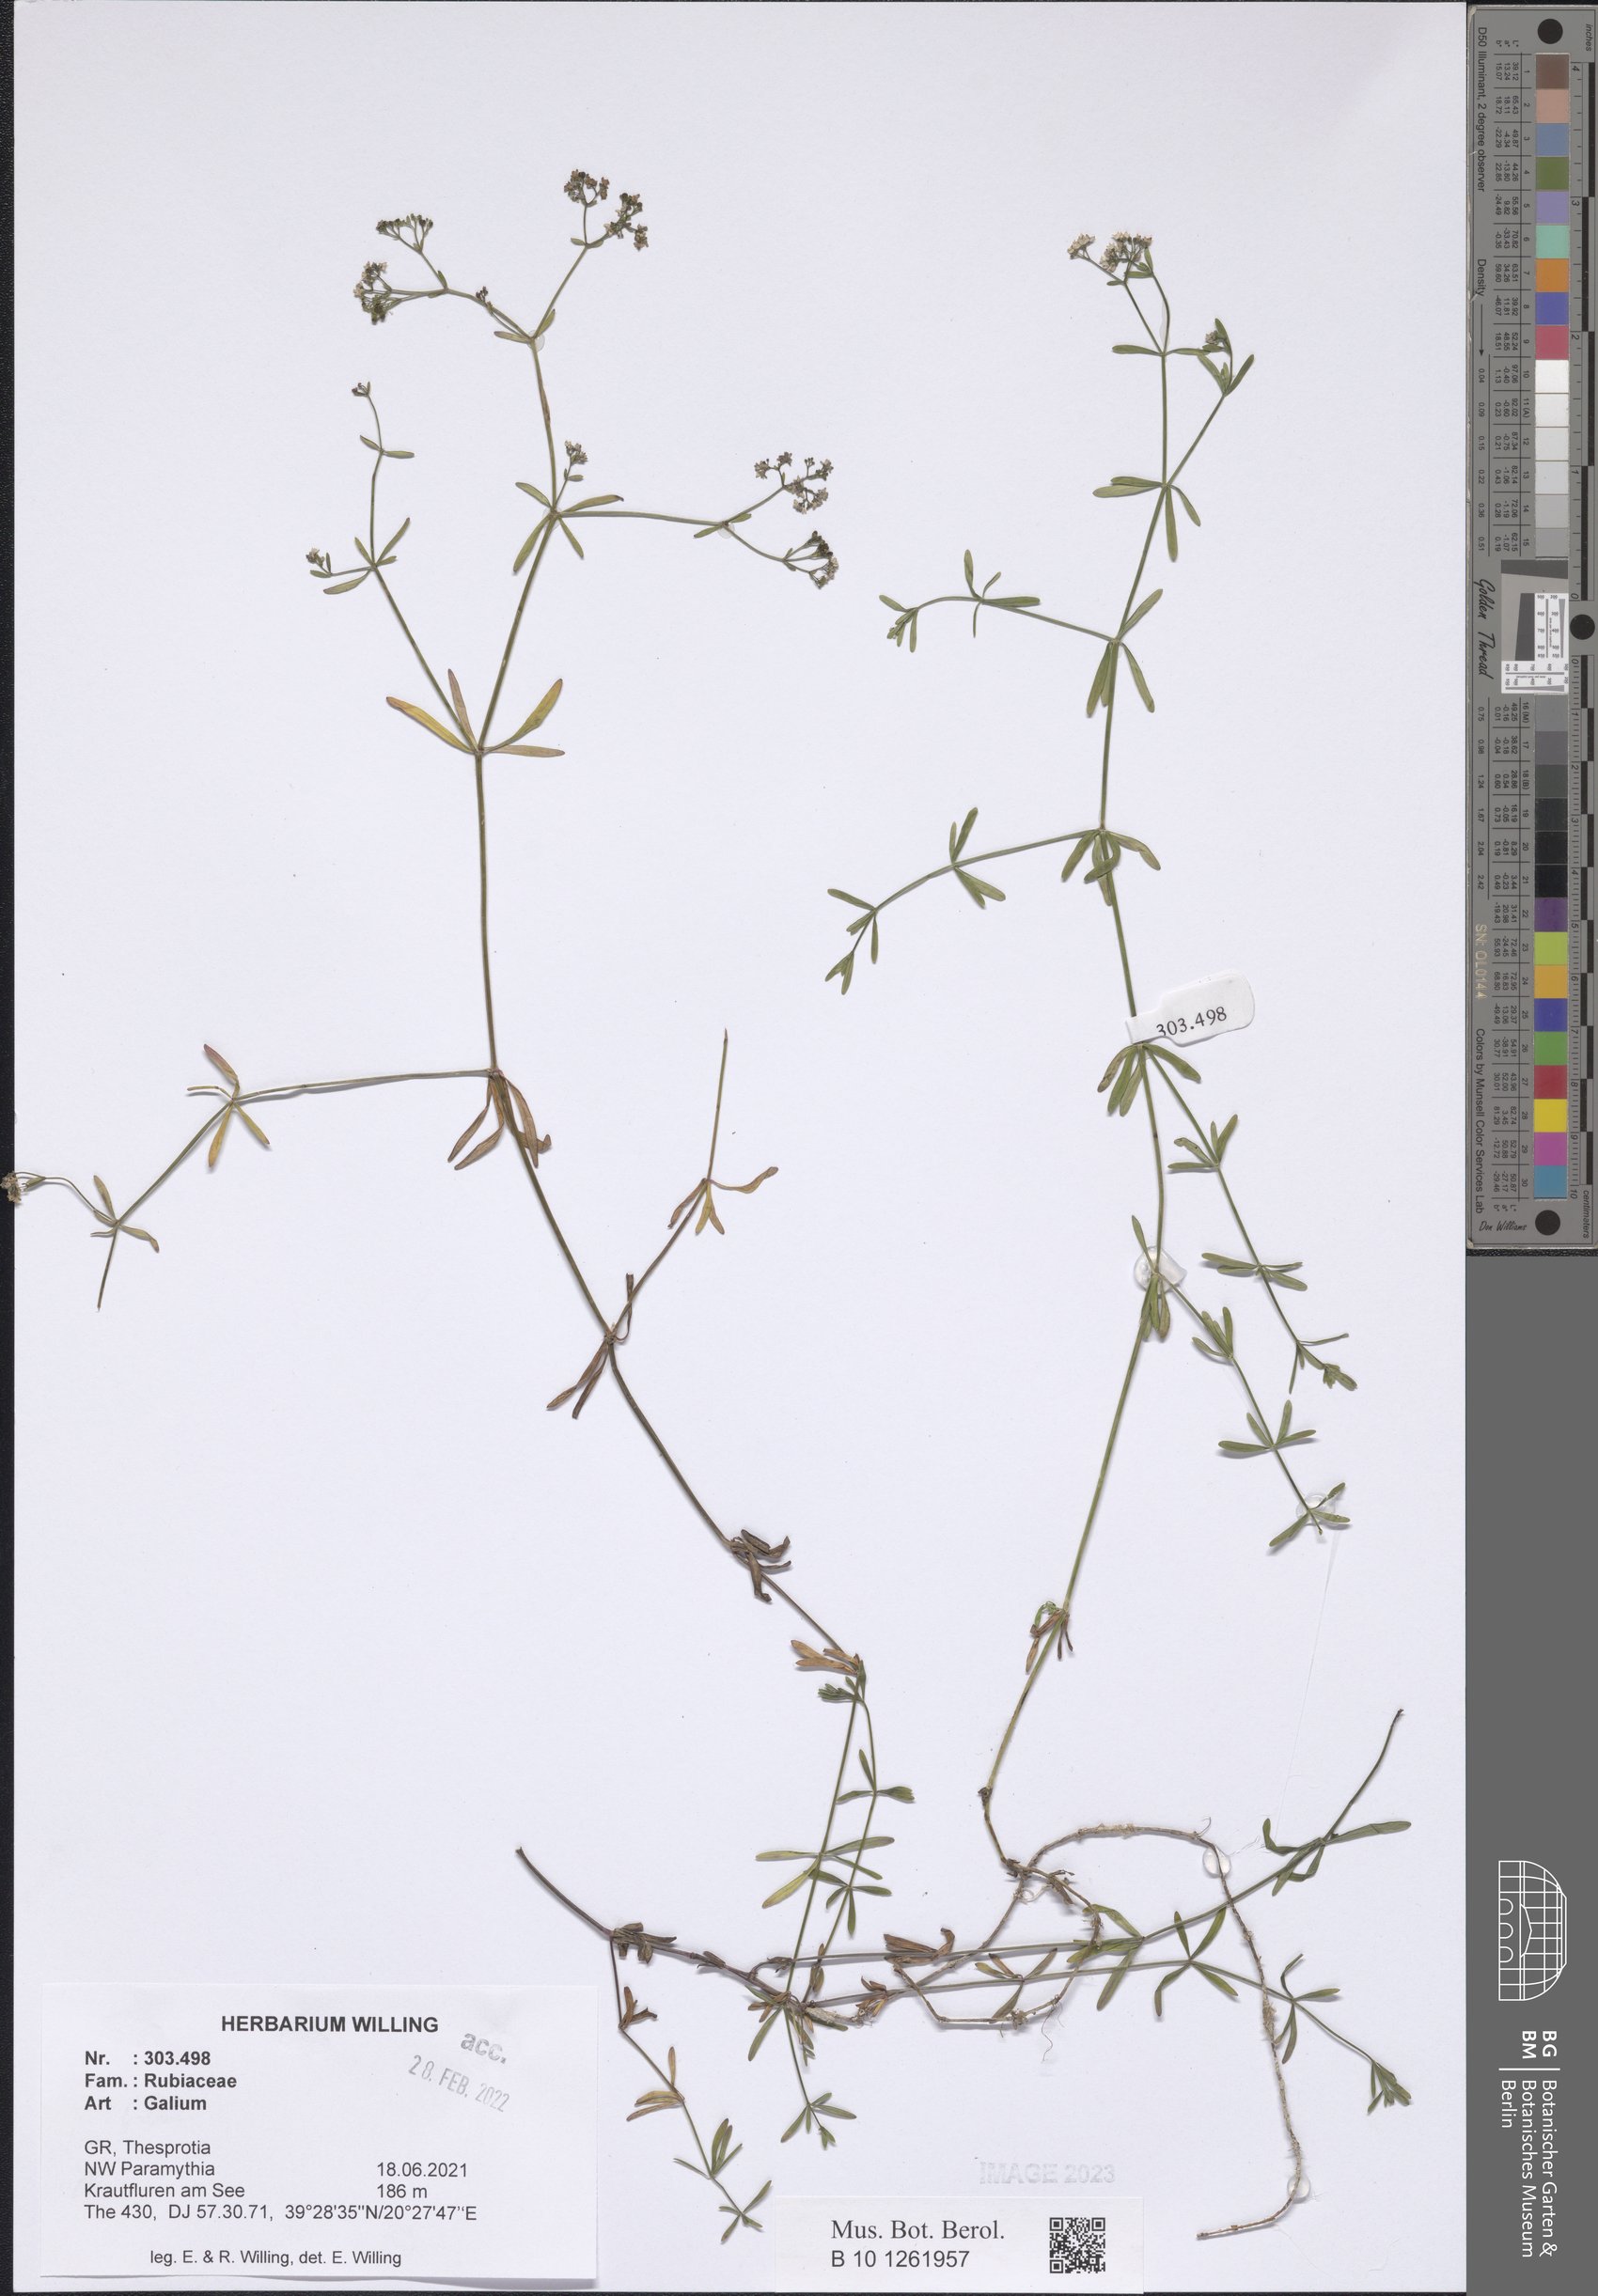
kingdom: Plantae
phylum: Tracheophyta
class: Magnoliopsida
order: Gentianales
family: Rubiaceae
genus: Galium
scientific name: Galium
